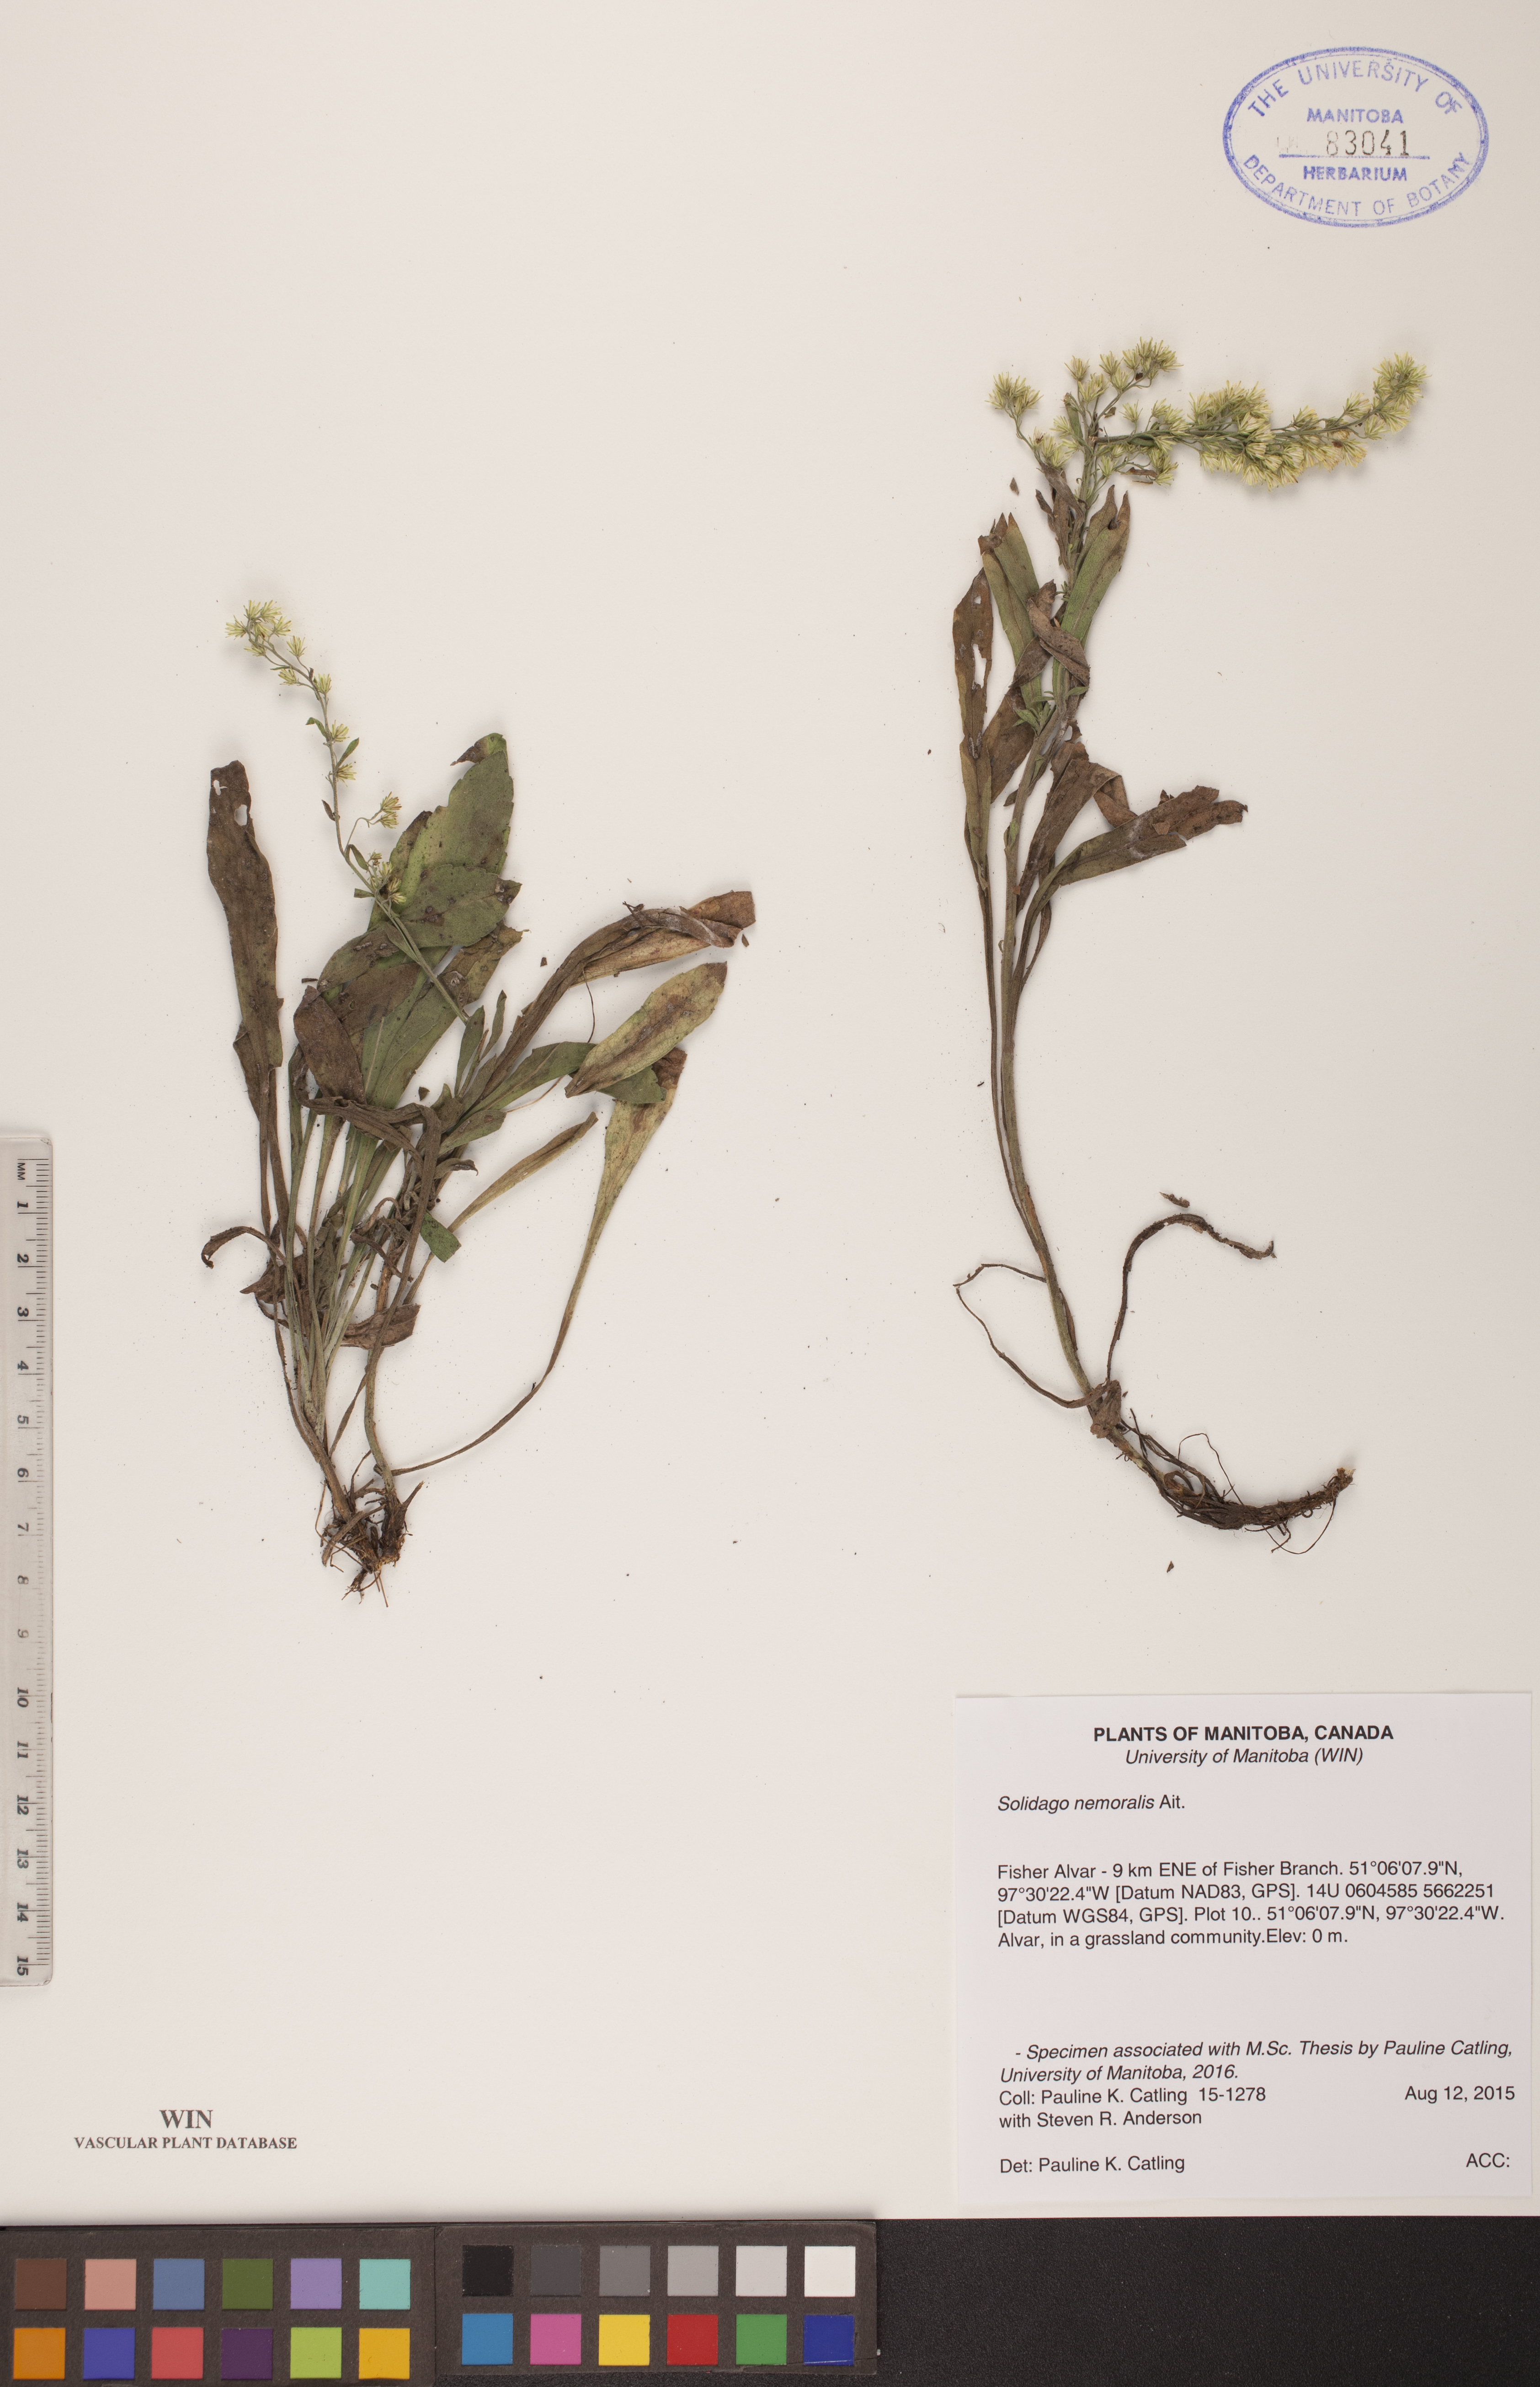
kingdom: Plantae
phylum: Tracheophyta
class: Magnoliopsida
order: Asterales
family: Asteraceae
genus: Solidago
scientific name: Solidago nemoralis
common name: Grey goldenrod
